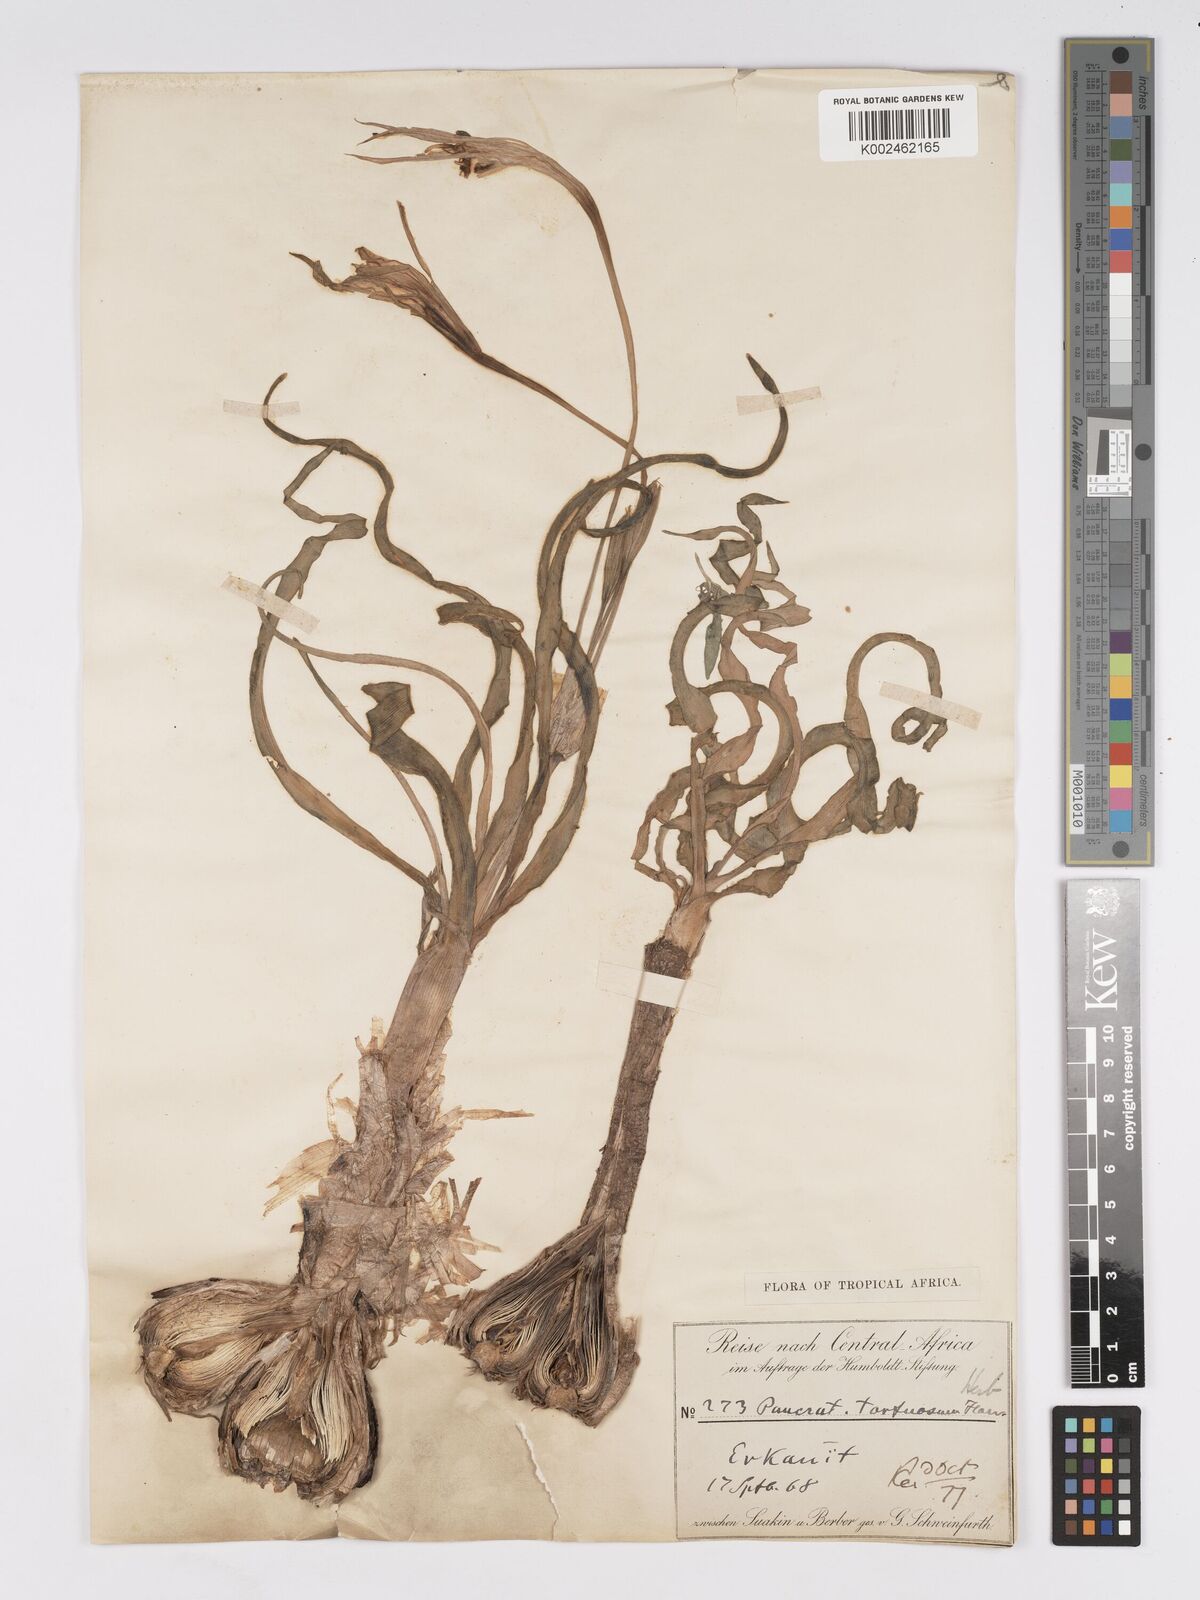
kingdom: Plantae
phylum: Tracheophyta
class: Liliopsida
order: Asparagales
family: Amaryllidaceae
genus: Pancratium
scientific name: Pancratium tortuosum
